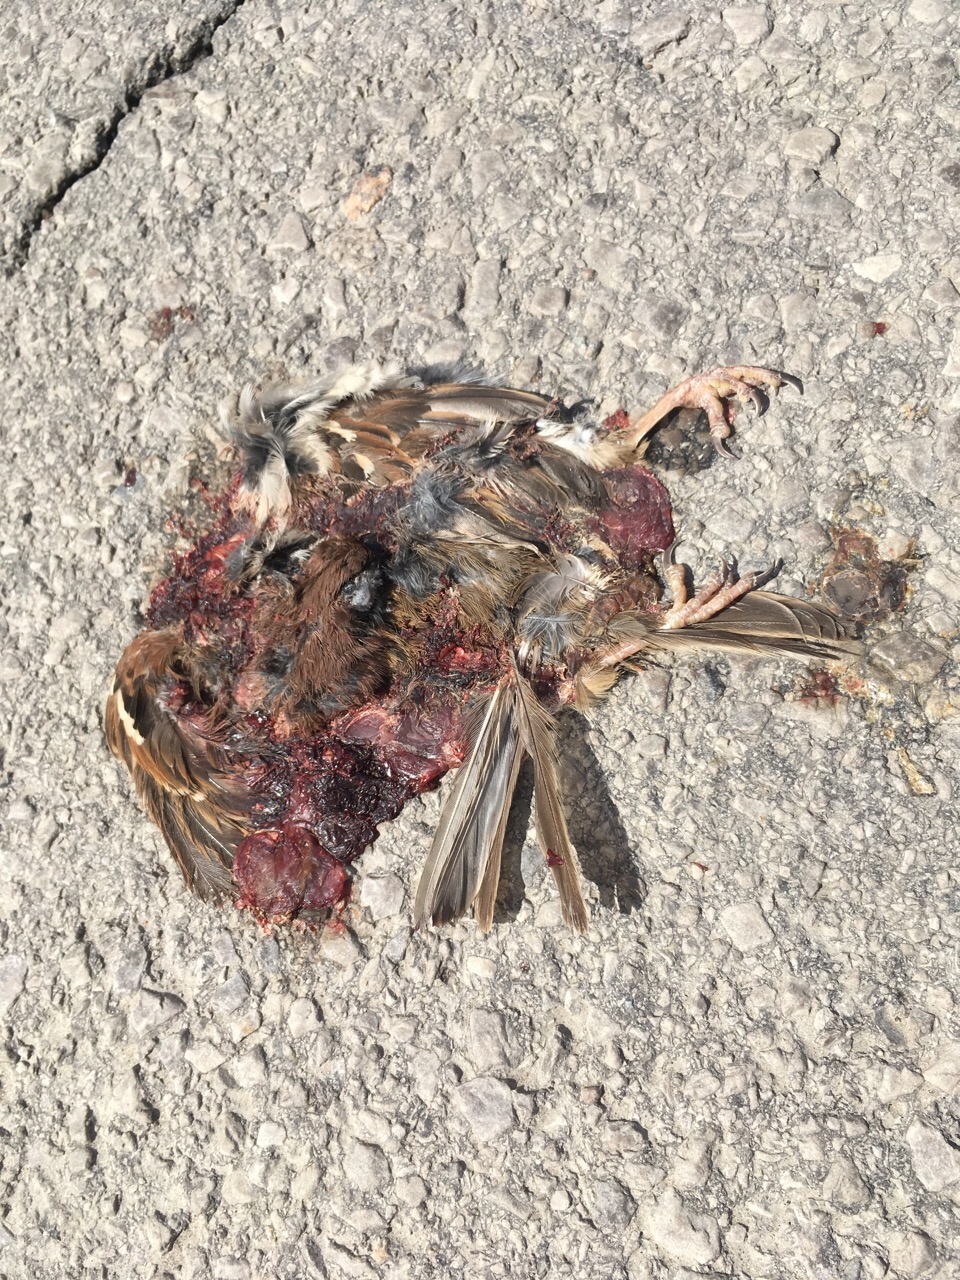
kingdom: Animalia
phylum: Chordata
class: Aves
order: Passeriformes
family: Passeridae
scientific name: Passeridae
